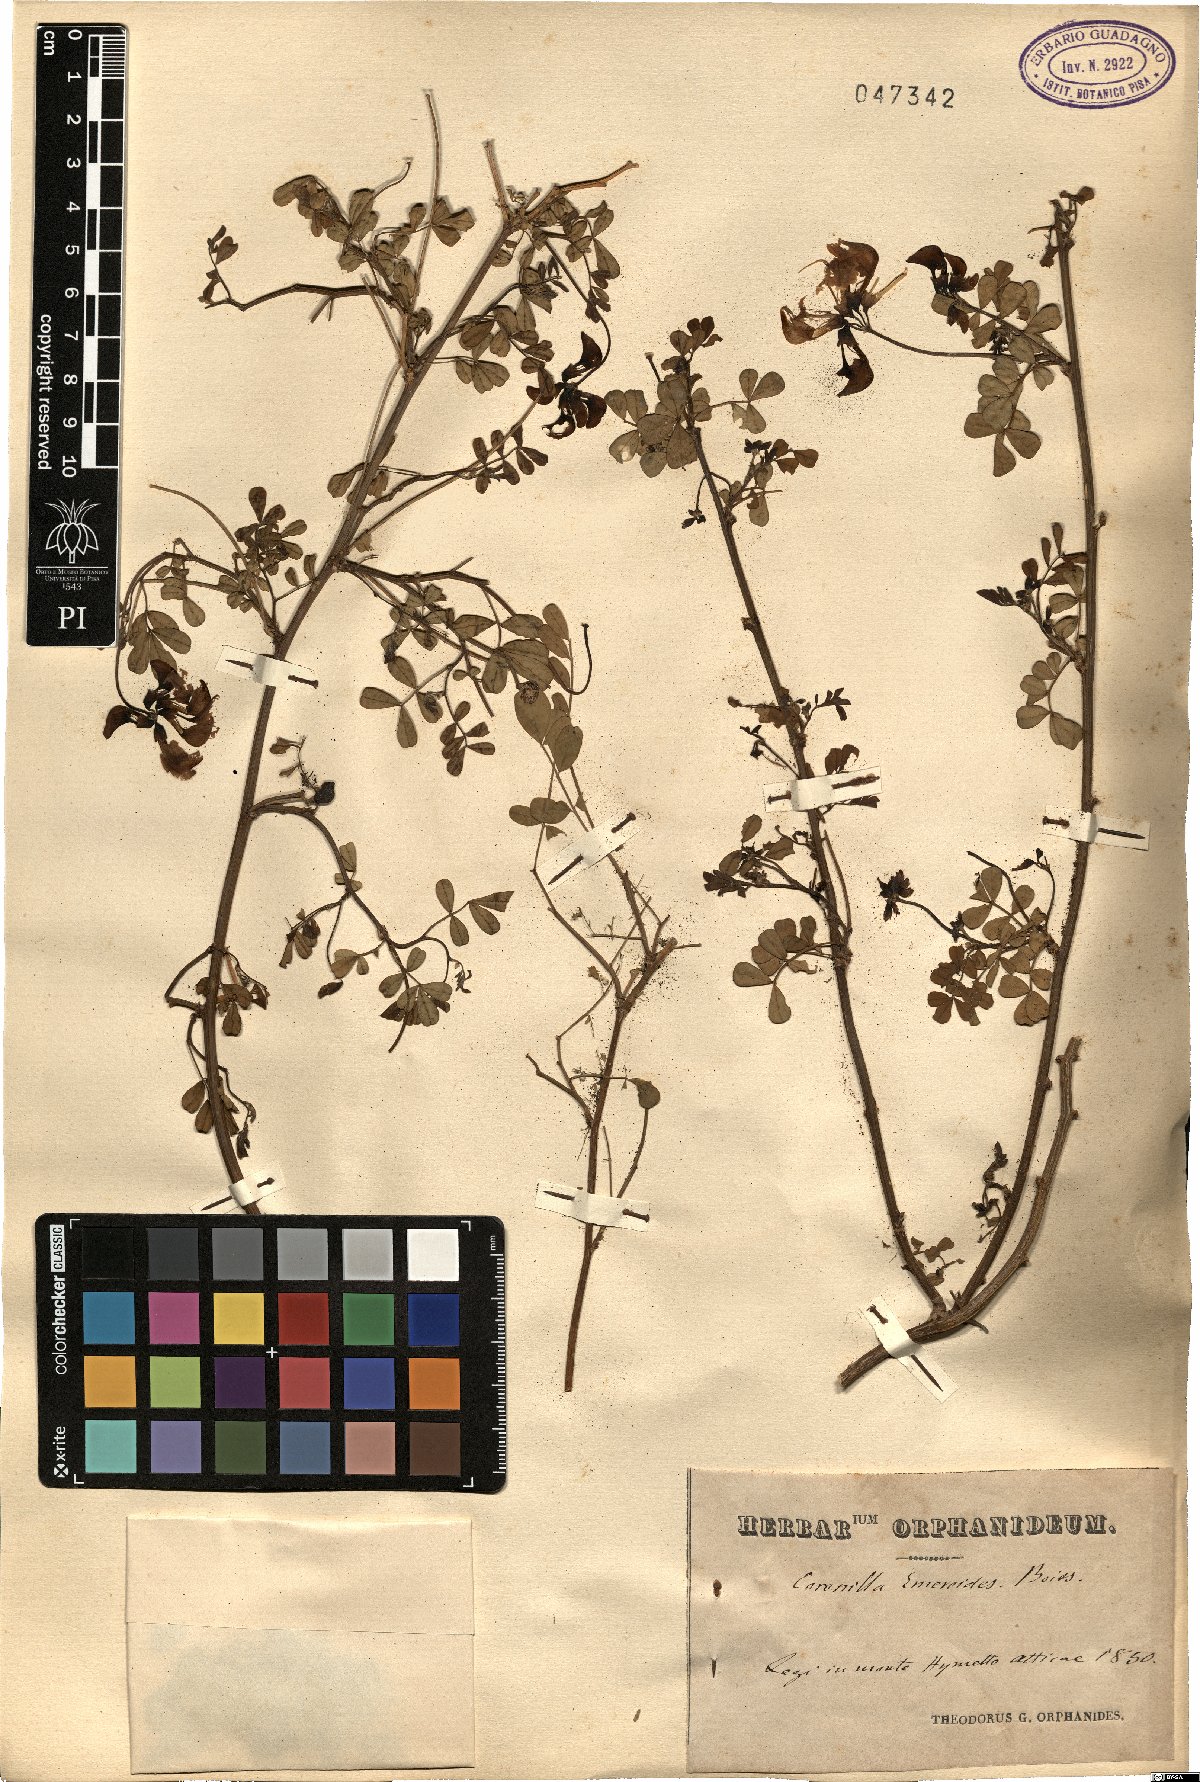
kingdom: Plantae
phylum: Tracheophyta
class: Magnoliopsida
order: Fabales
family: Fabaceae
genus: Hippocrepis
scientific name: Hippocrepis emerus
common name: Scorpion senna
